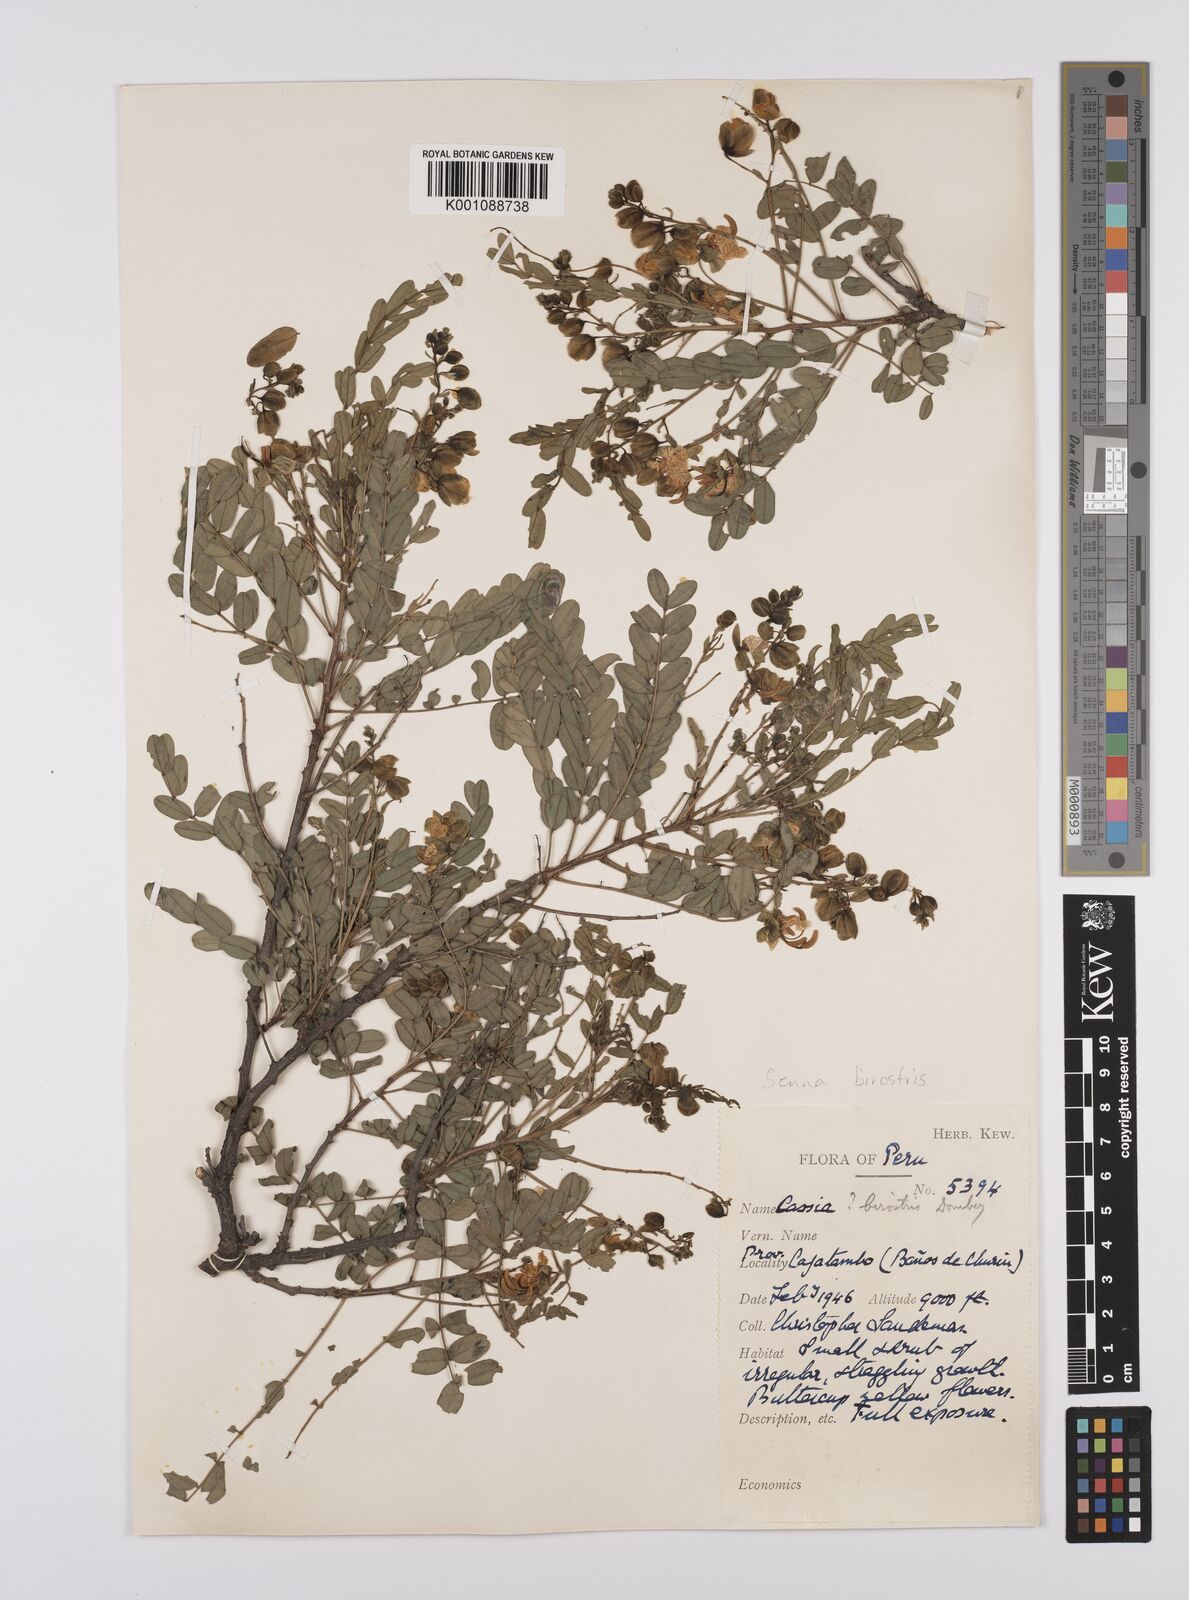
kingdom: Plantae
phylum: Tracheophyta
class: Magnoliopsida
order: Fabales
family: Fabaceae
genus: Senna
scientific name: Senna birostris
